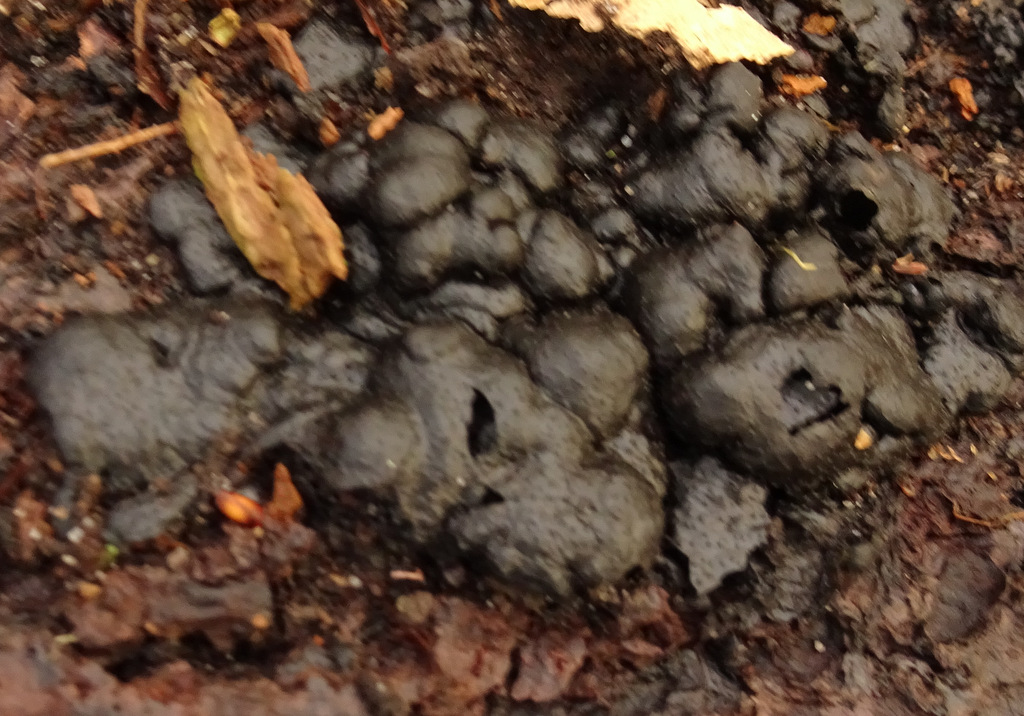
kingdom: Fungi
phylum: Ascomycota
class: Sordariomycetes
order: Xylariales
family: Xylariaceae
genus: Kretzschmaria
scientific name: Kretzschmaria deusta
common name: stor kulsvamp
